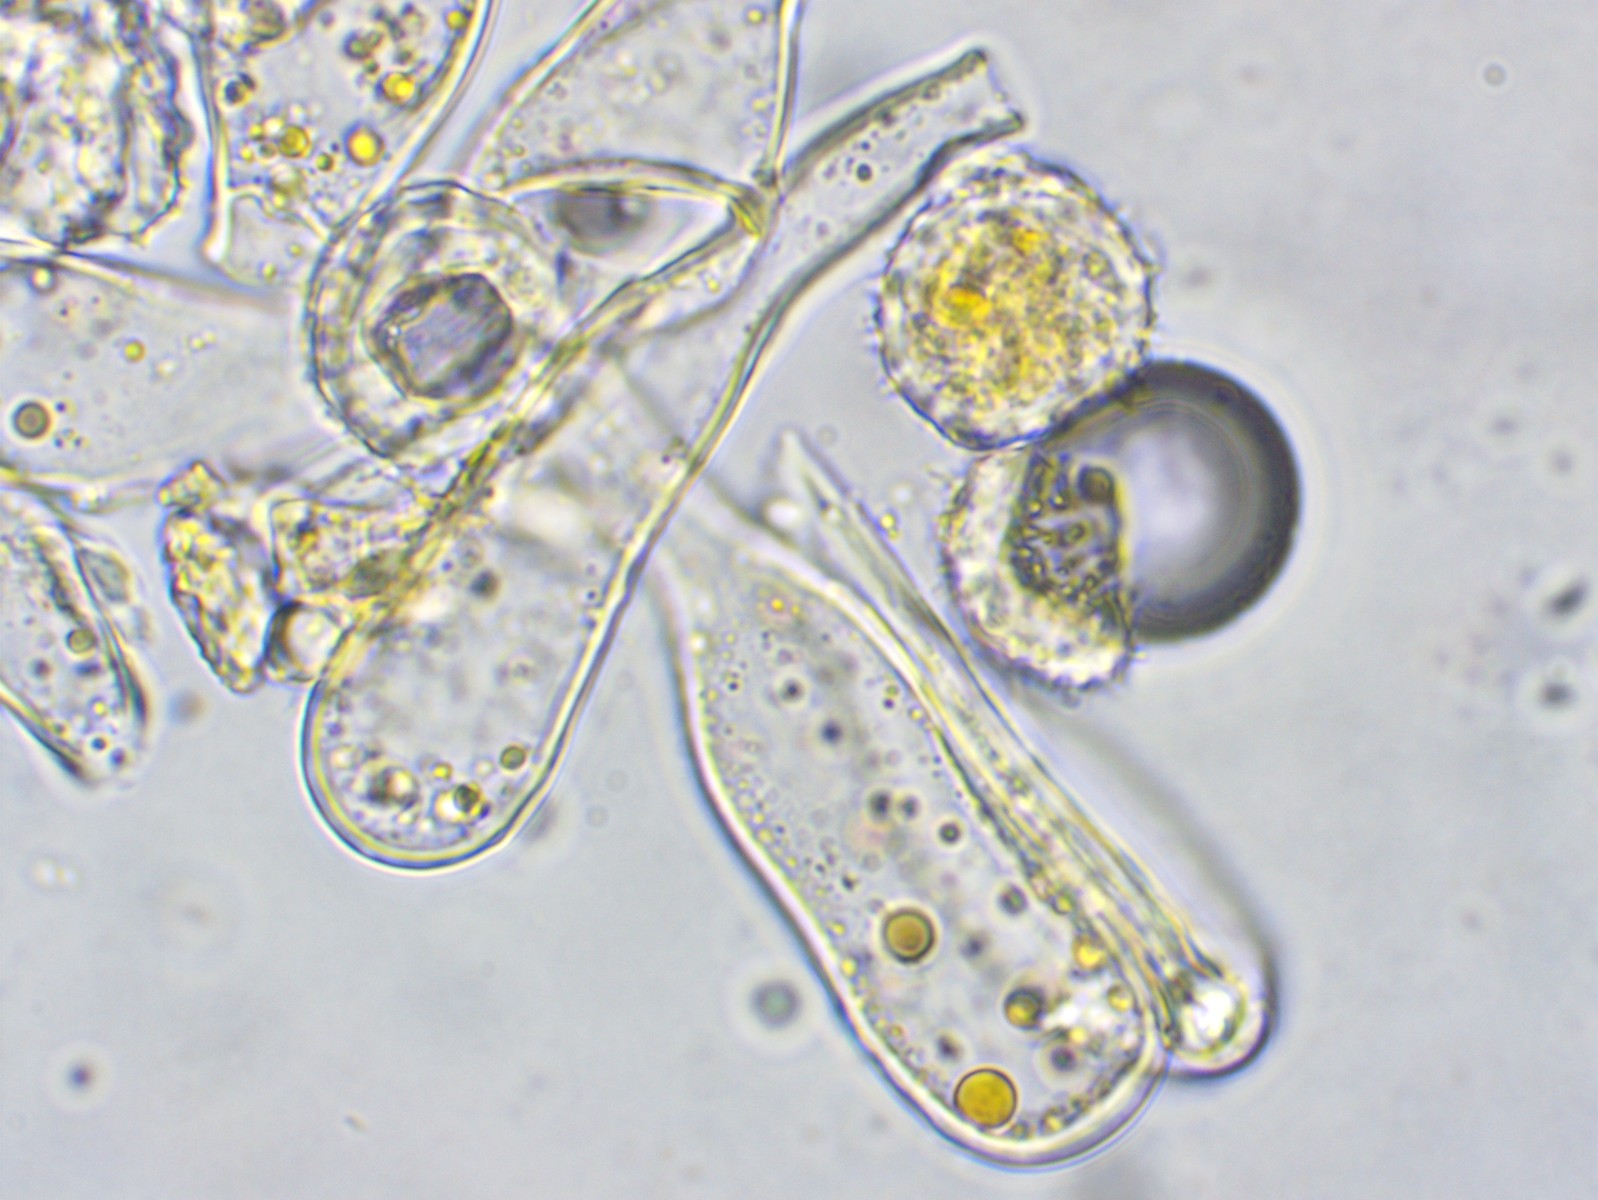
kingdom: Fungi
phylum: Basidiomycota
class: Pucciniomycetes
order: Pucciniales
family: Phragmidiaceae
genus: Phragmidium
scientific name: Phragmidium rubi-idaei
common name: hindbær-flercellerust
